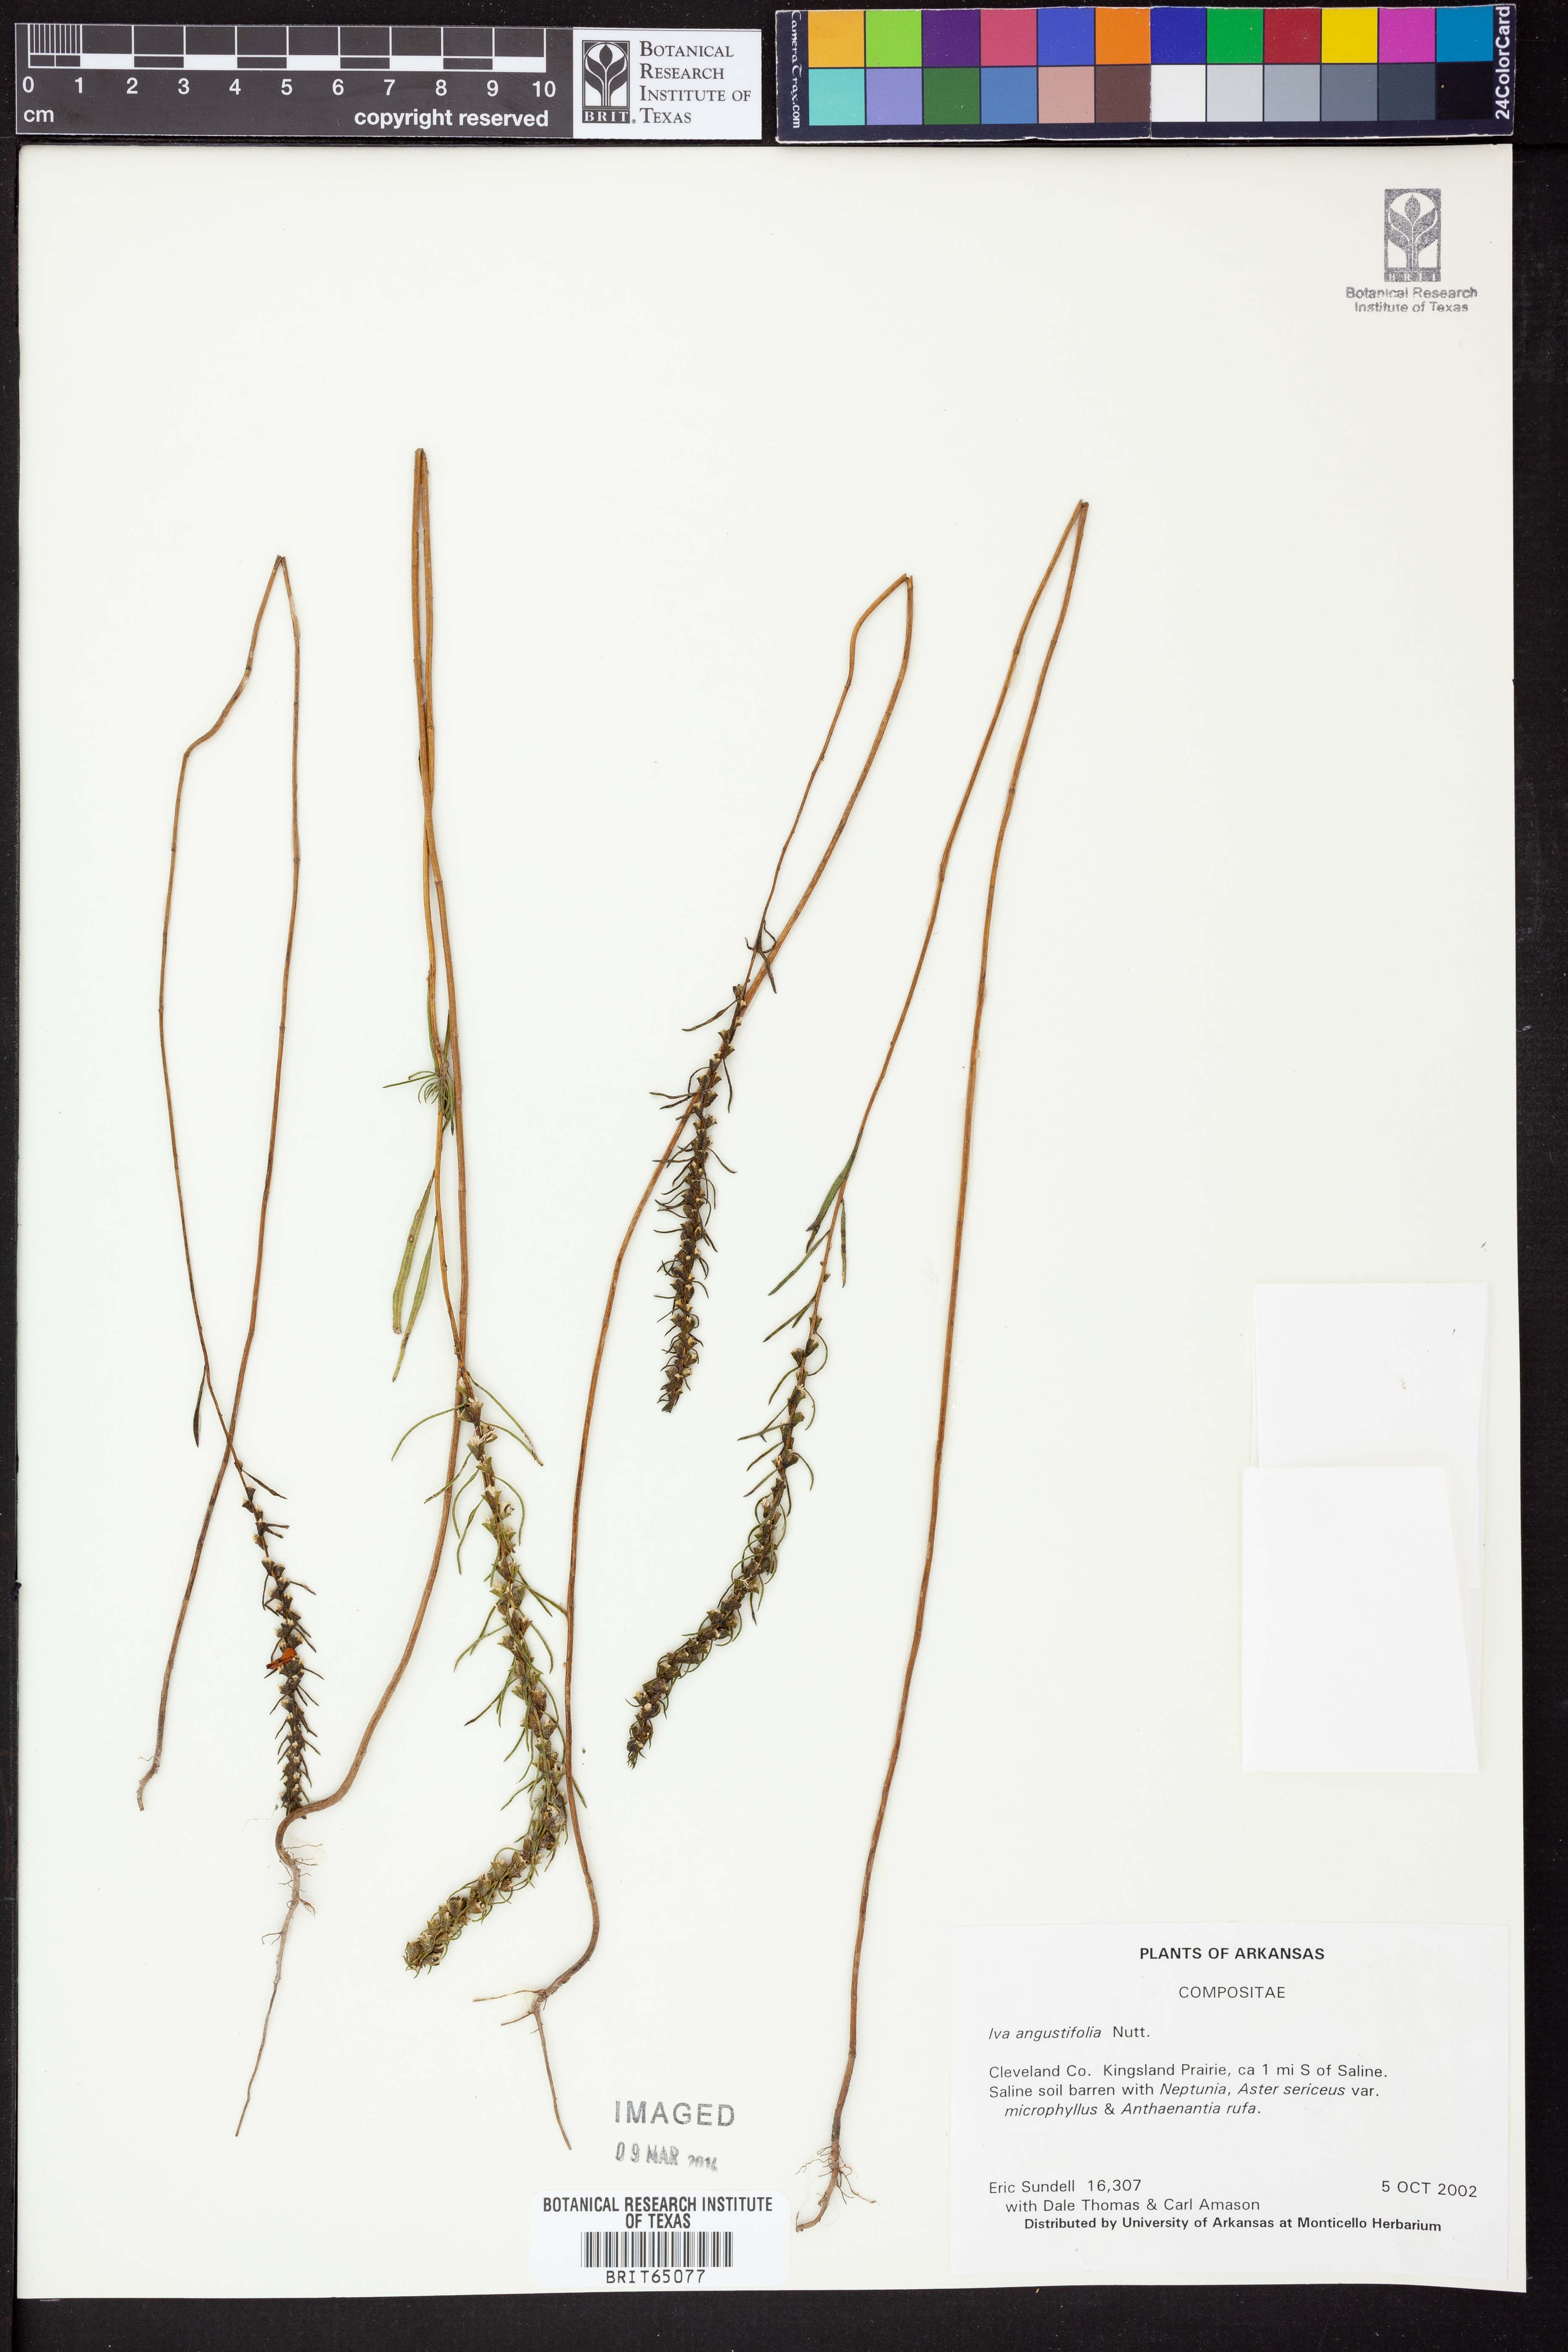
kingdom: Plantae
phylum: Tracheophyta
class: Magnoliopsida
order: Asterales
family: Asteraceae
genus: Iva
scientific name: Iva asperifolia
